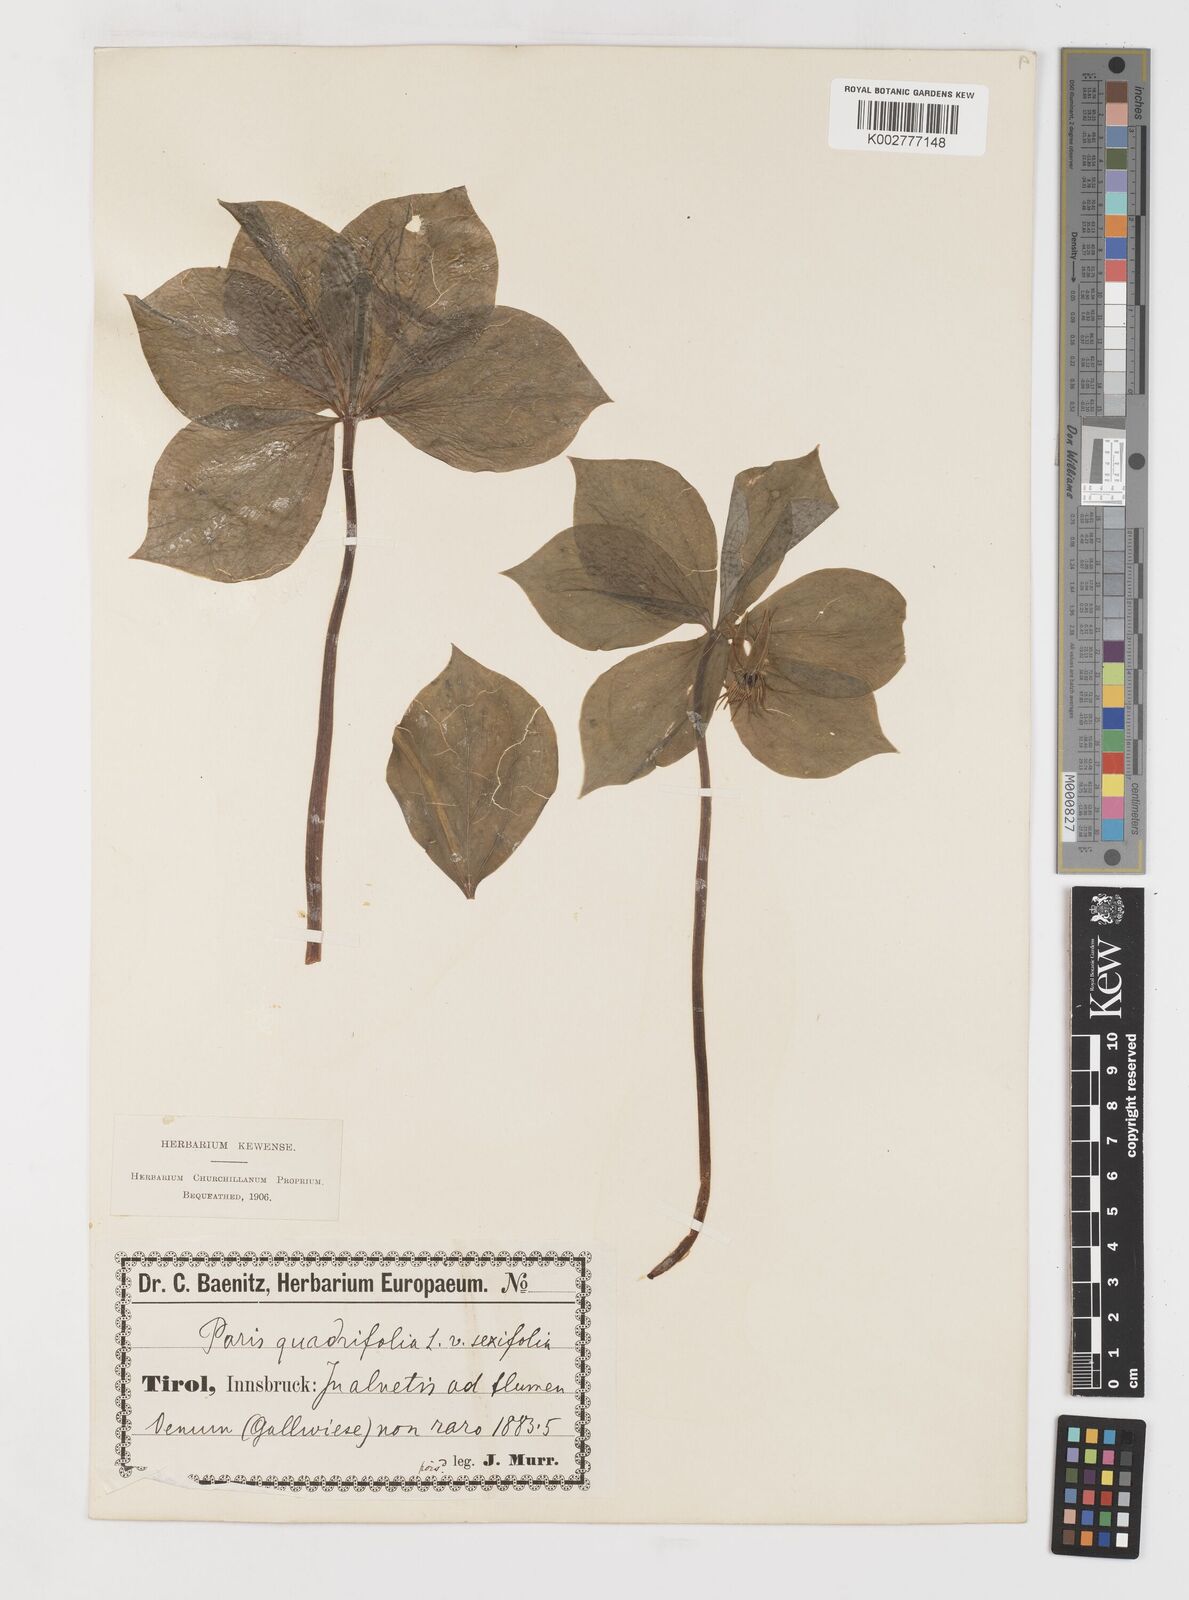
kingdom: Plantae
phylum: Tracheophyta
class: Liliopsida
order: Liliales
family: Melanthiaceae
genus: Paris
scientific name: Paris quadrifolia
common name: Herb-paris
